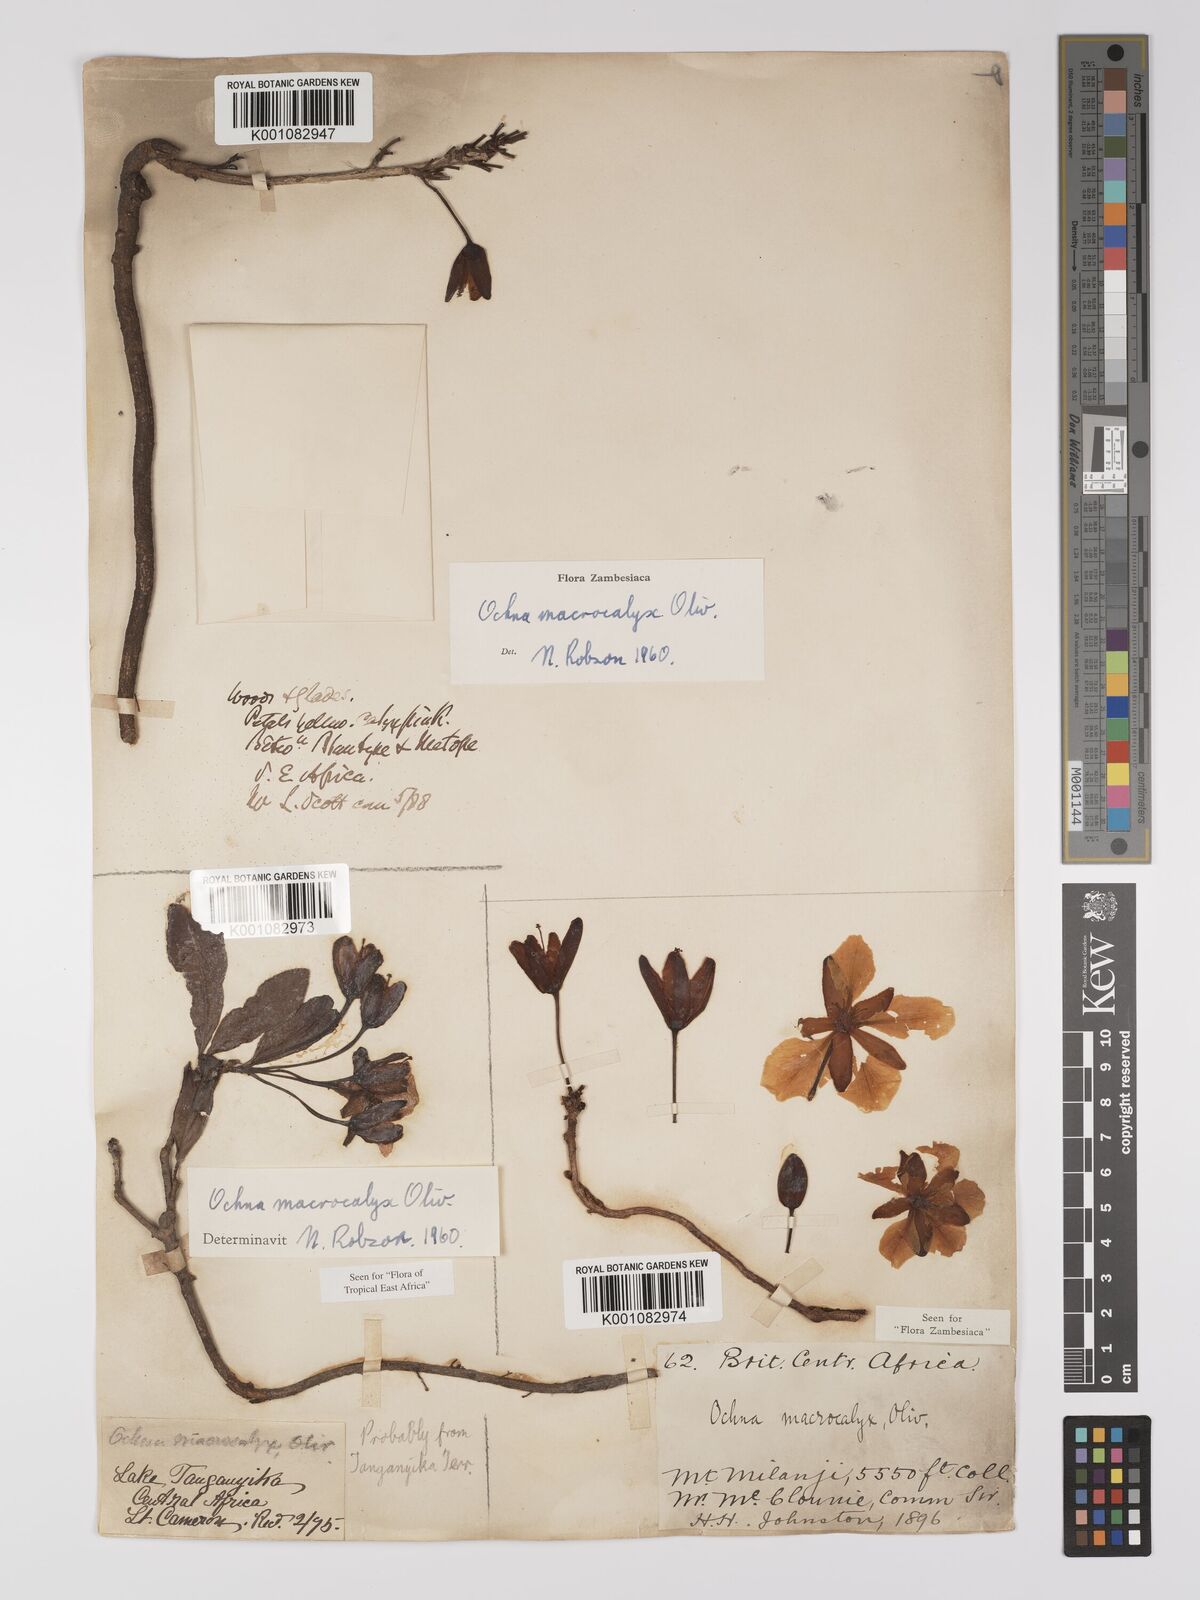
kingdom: Plantae
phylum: Tracheophyta
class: Magnoliopsida
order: Malpighiales
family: Ochnaceae
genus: Ochna
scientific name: Ochna macrocalyx
